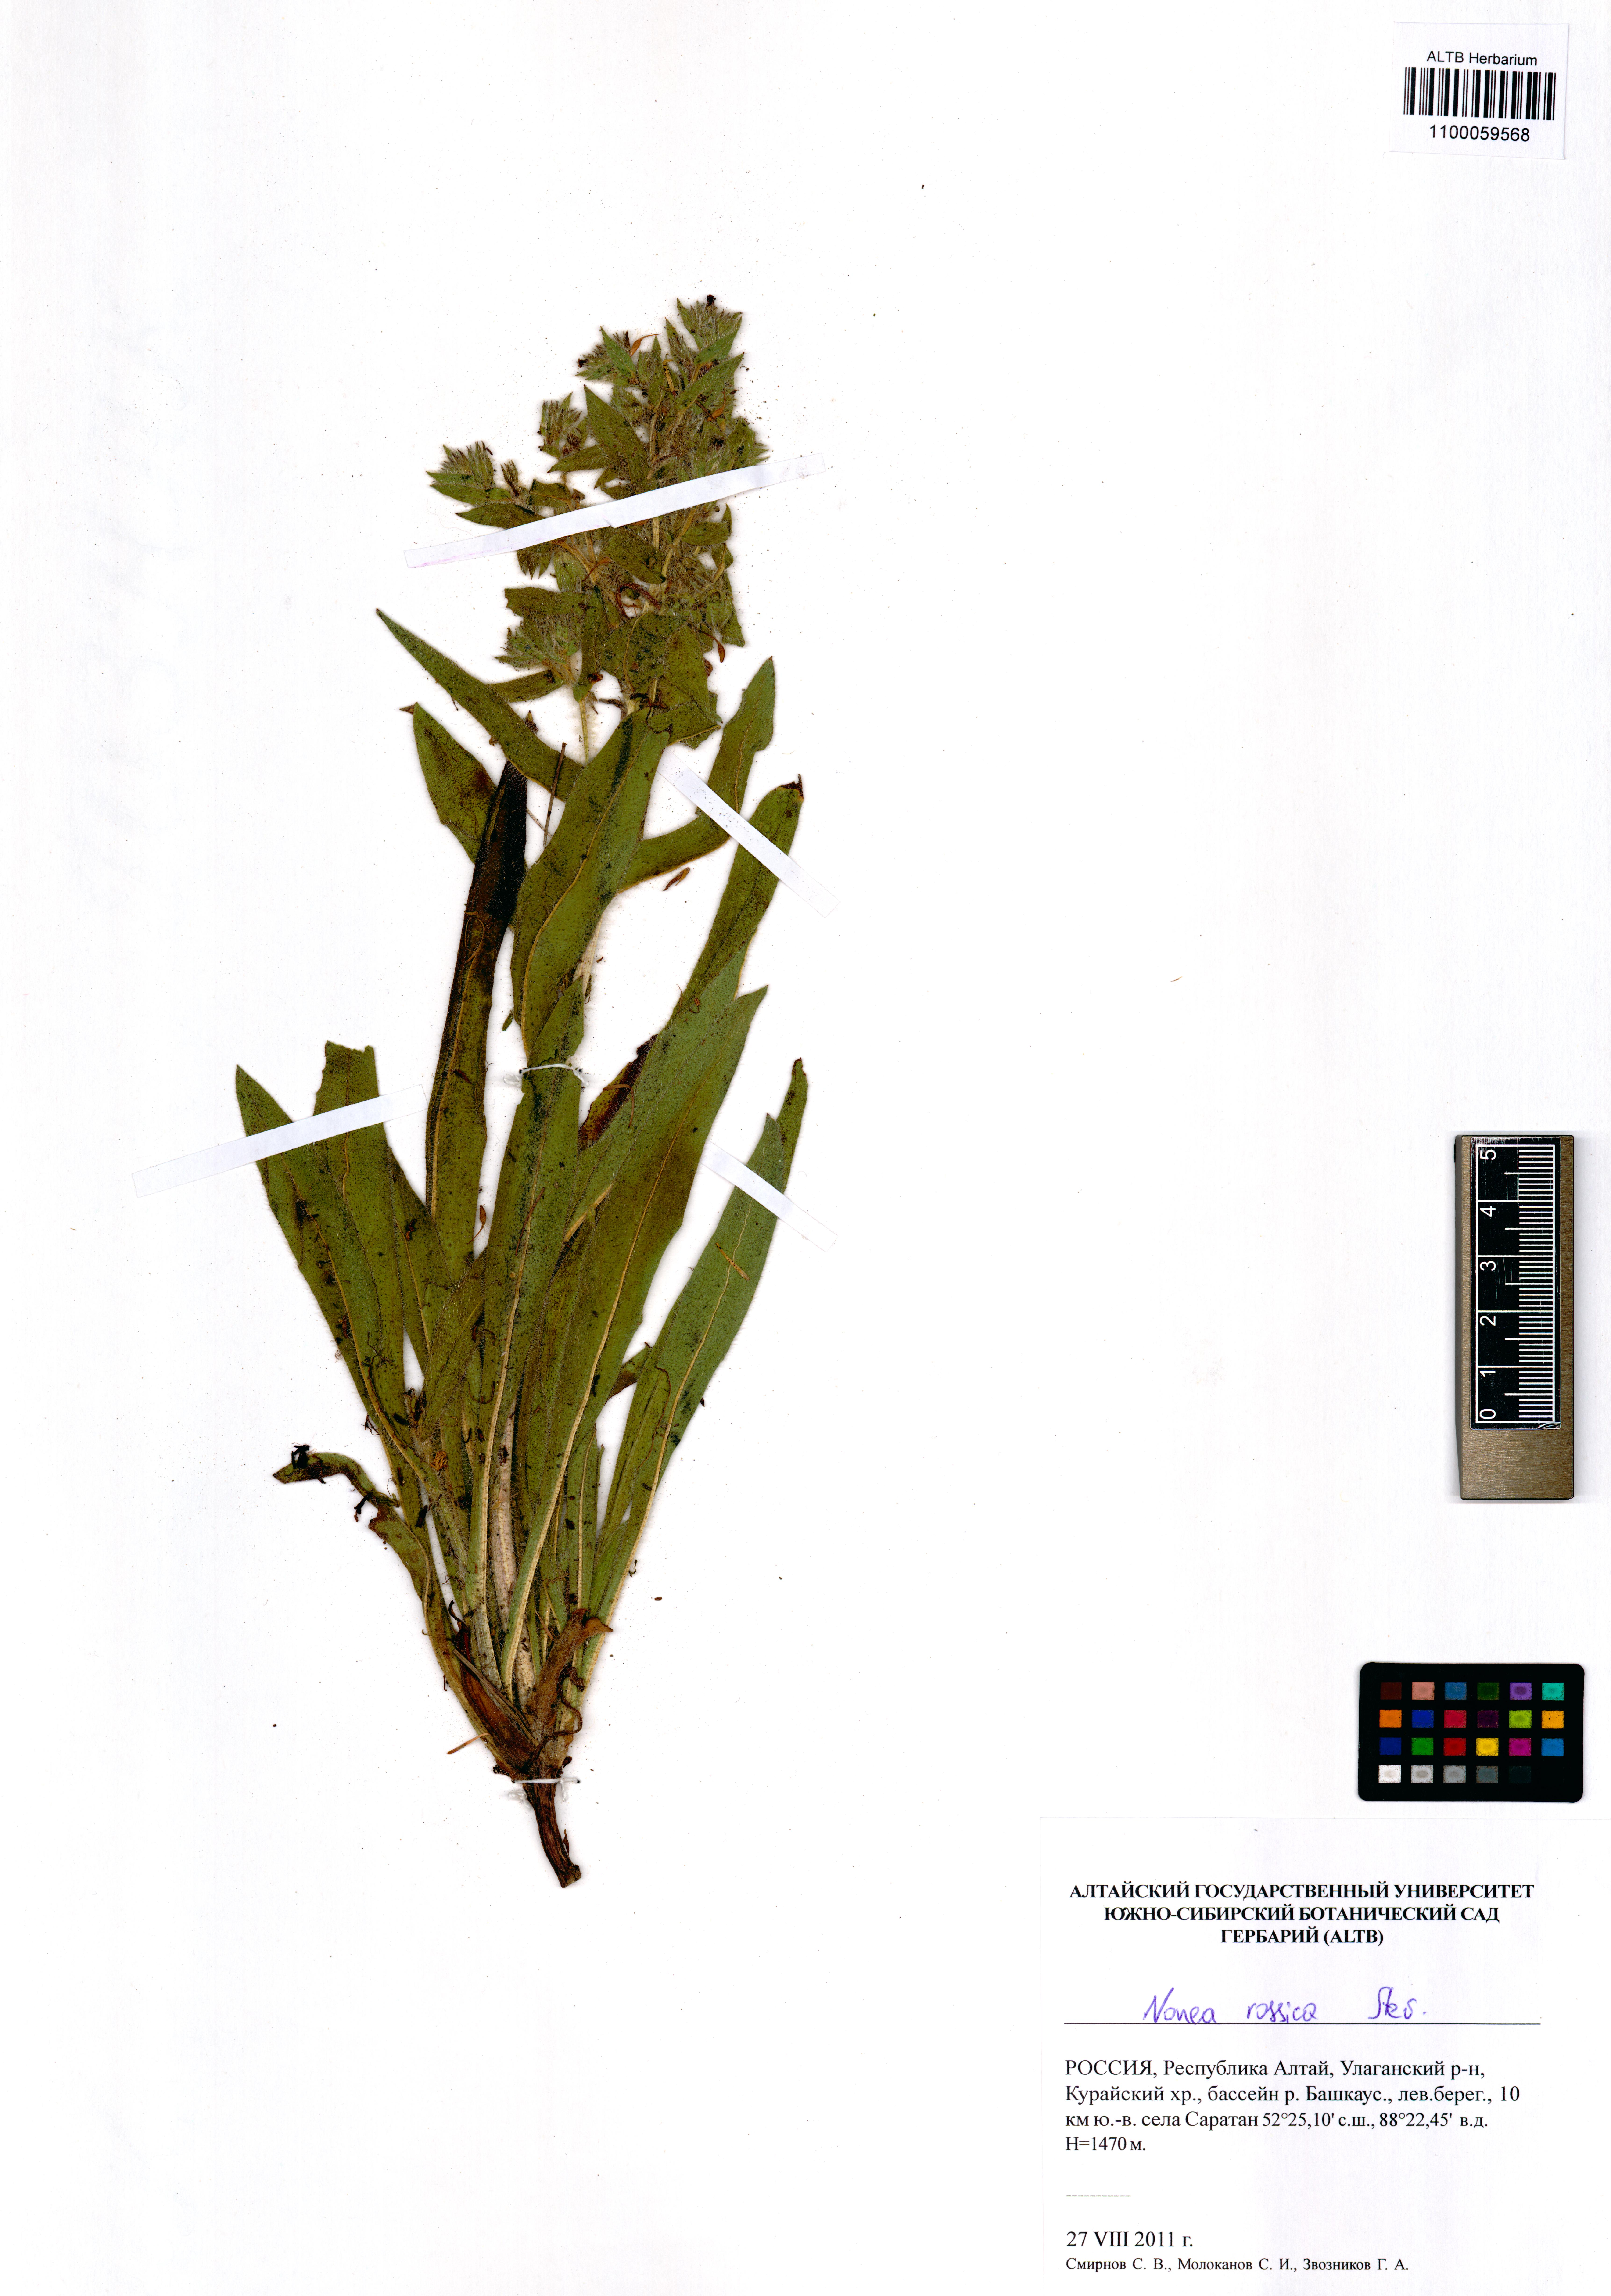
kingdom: Plantae
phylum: Tracheophyta
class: Magnoliopsida
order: Boraginales
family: Boraginaceae
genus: Nonea
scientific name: Nonea pulla
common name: Brown nonea
